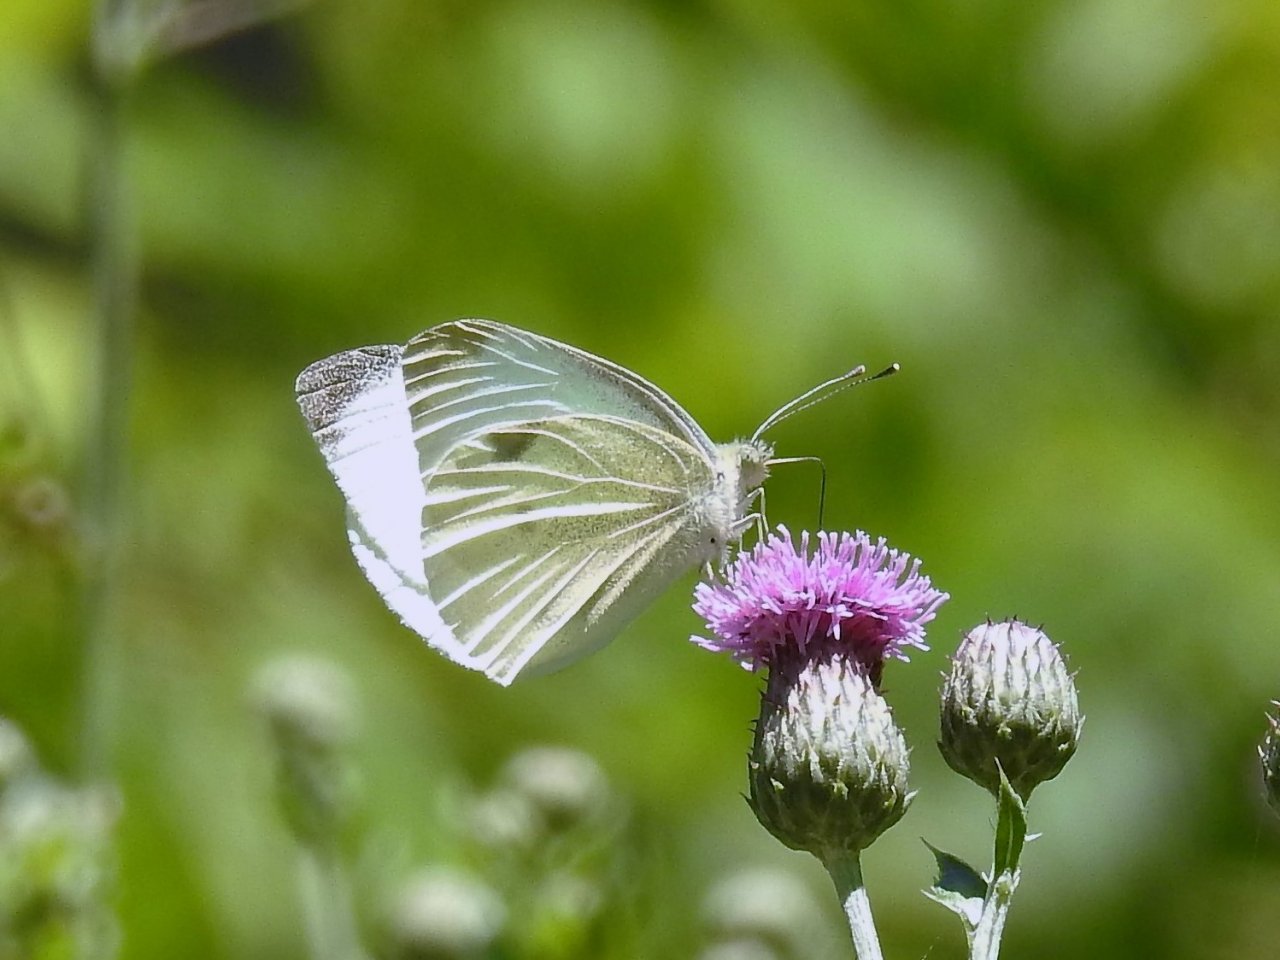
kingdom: Animalia
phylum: Arthropoda
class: Insecta
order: Lepidoptera
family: Pieridae
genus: Pieris
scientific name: Pieris rapae
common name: Cabbage White
